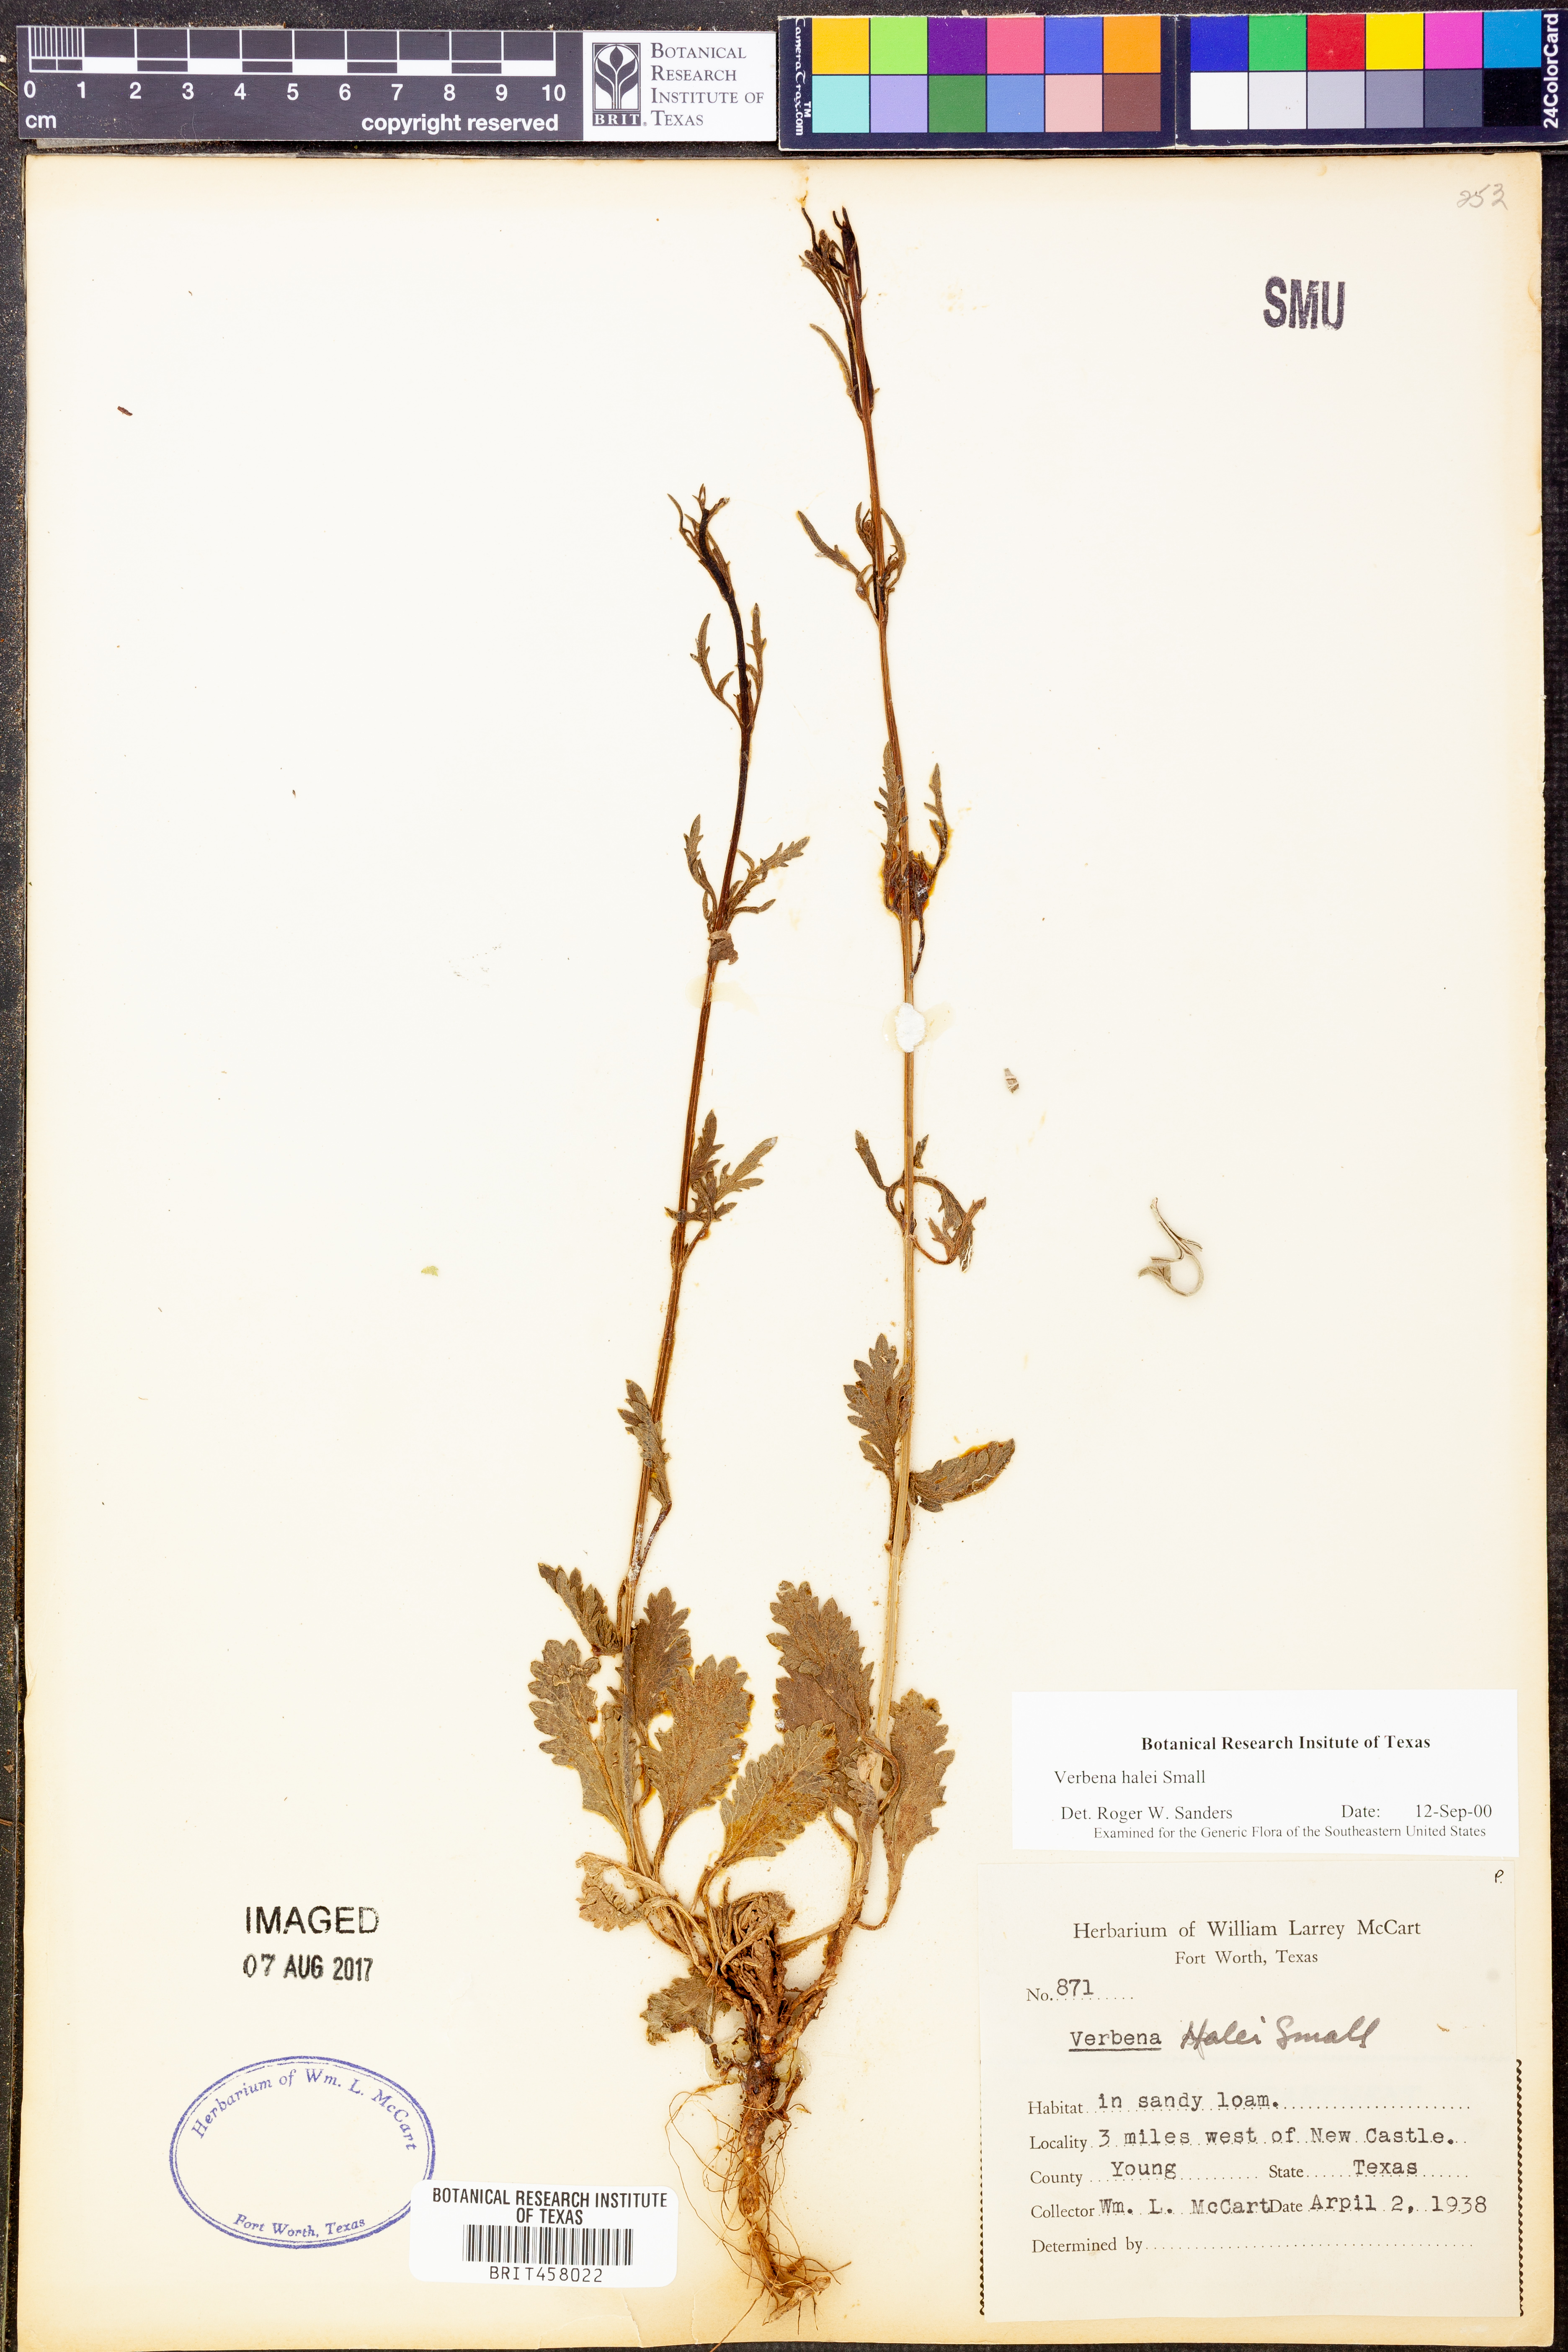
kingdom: Plantae
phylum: Tracheophyta
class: Magnoliopsida
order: Lamiales
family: Verbenaceae
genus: Verbena
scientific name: Verbena halei
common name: Texas vervain
